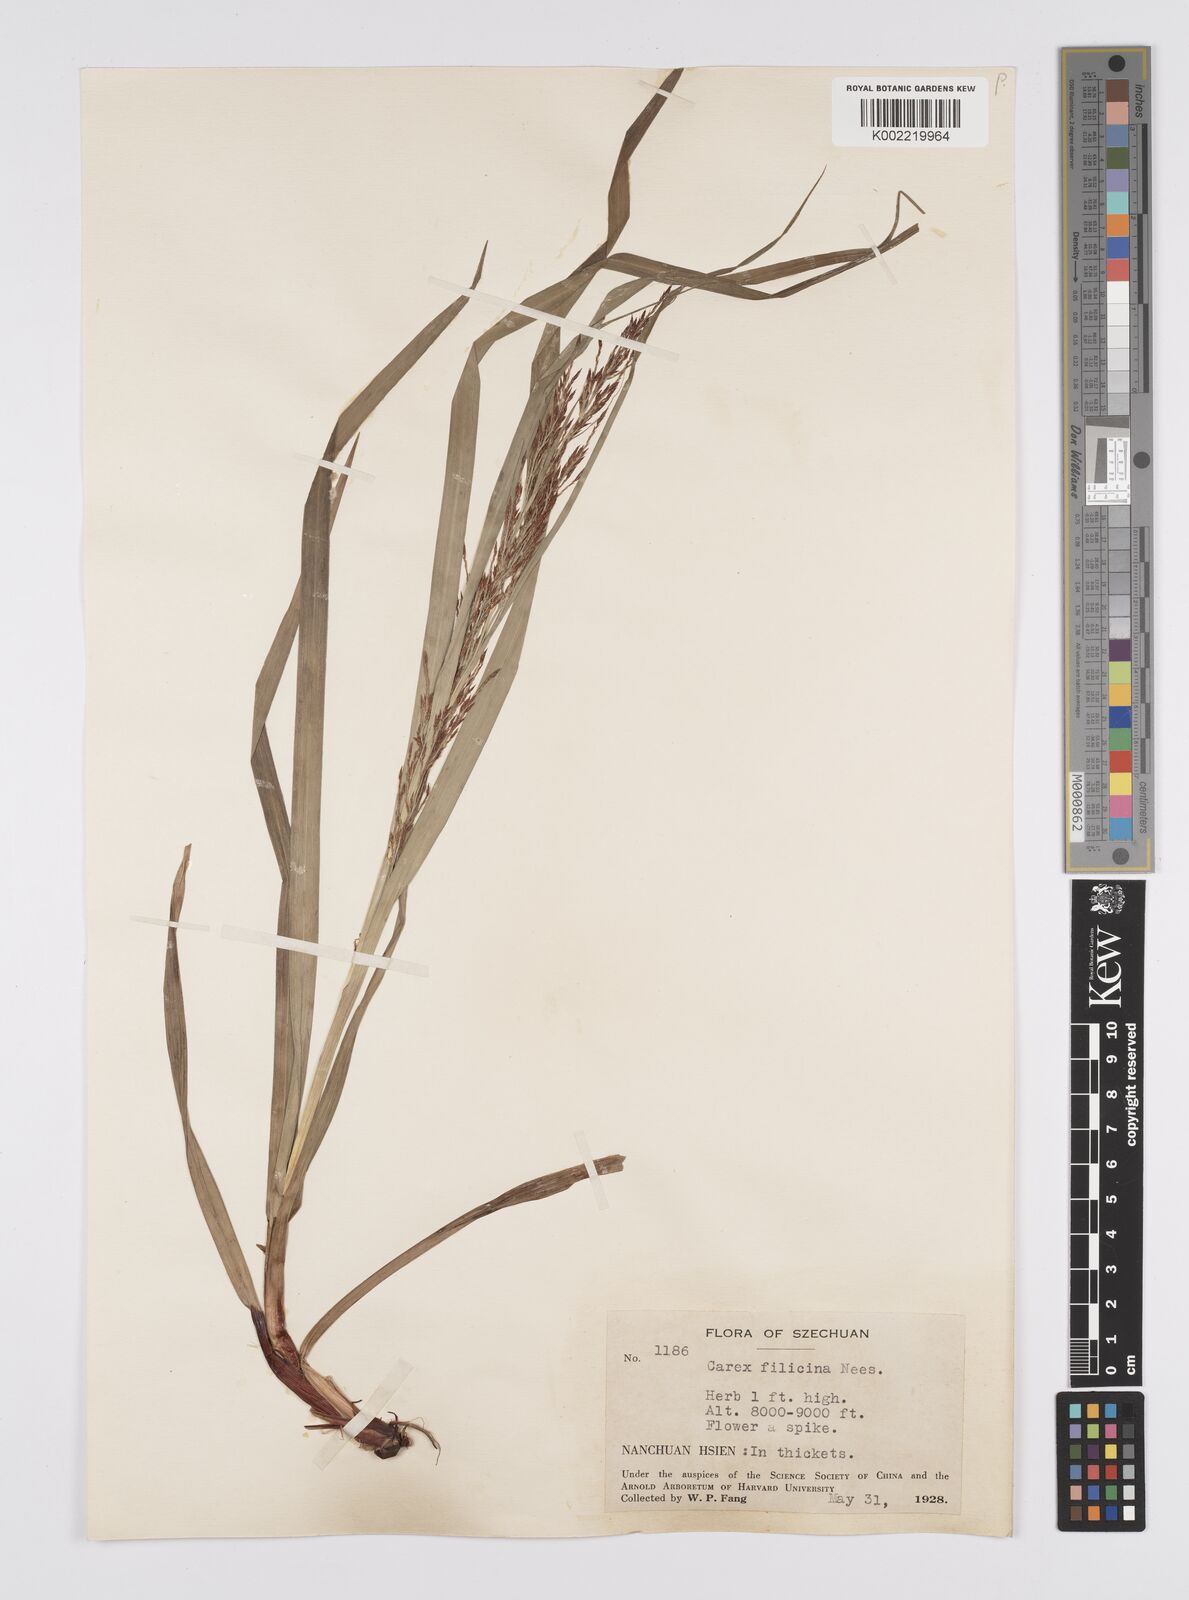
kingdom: Plantae
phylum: Tracheophyta
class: Liliopsida
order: Poales
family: Cyperaceae
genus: Carex
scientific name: Carex filicina
